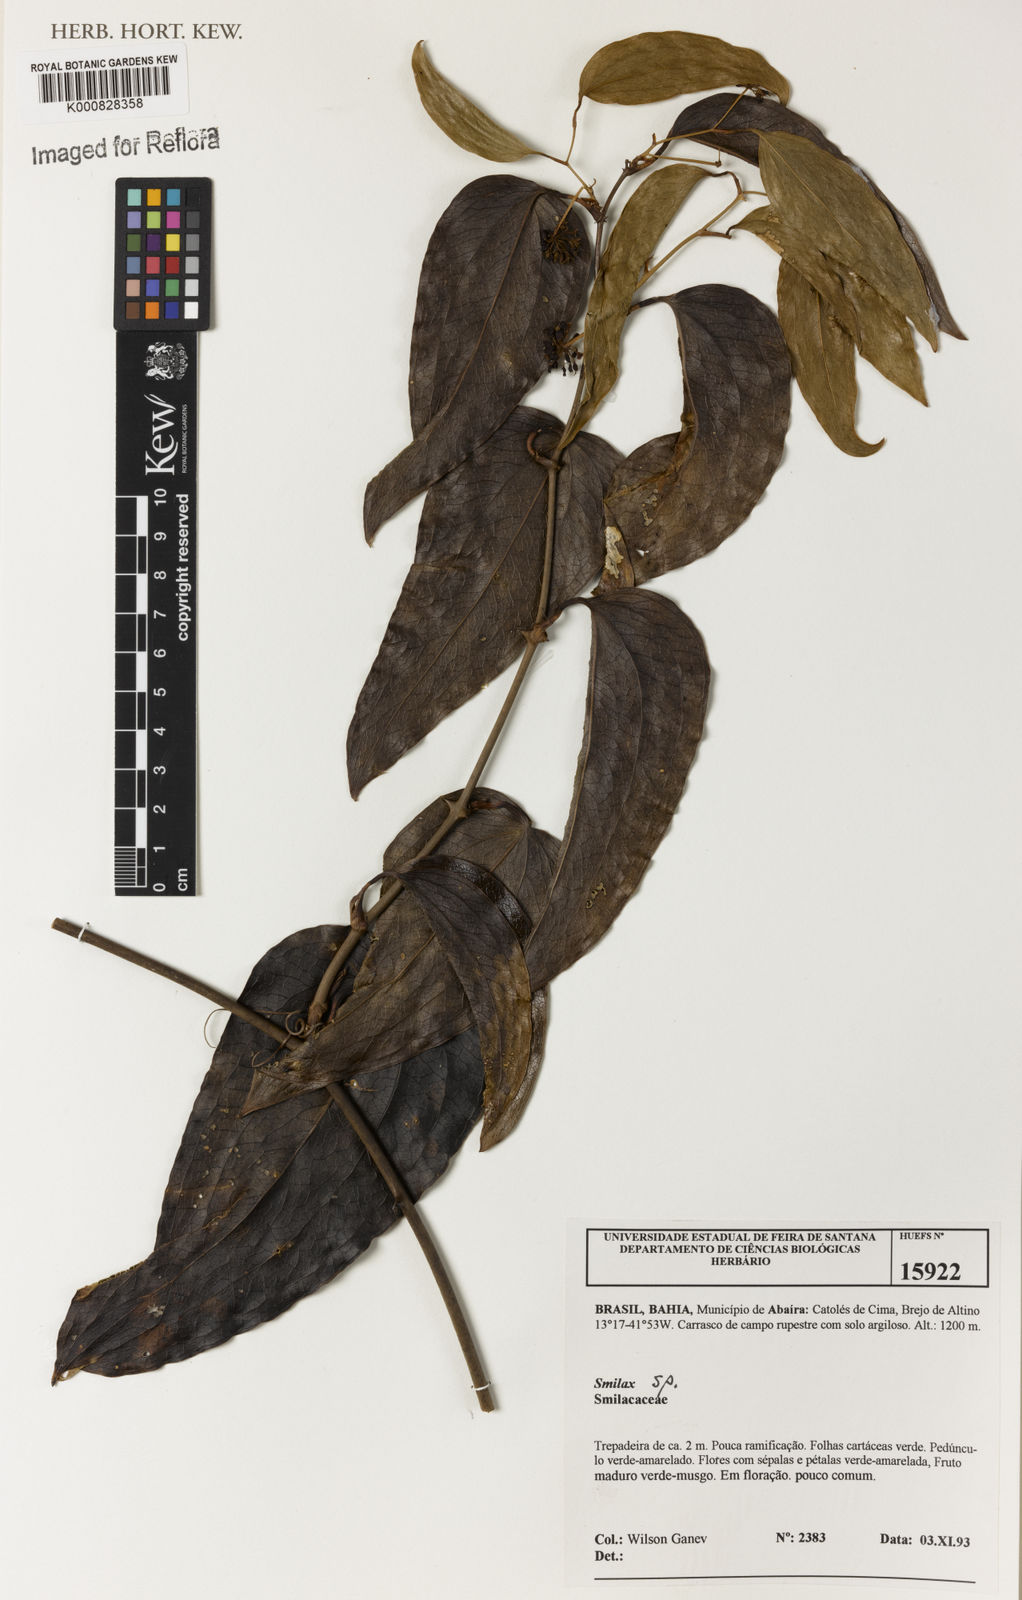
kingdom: Plantae
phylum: Tracheophyta
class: Liliopsida
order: Liliales
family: Smilacaceae
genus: Smilax
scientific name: Smilax
